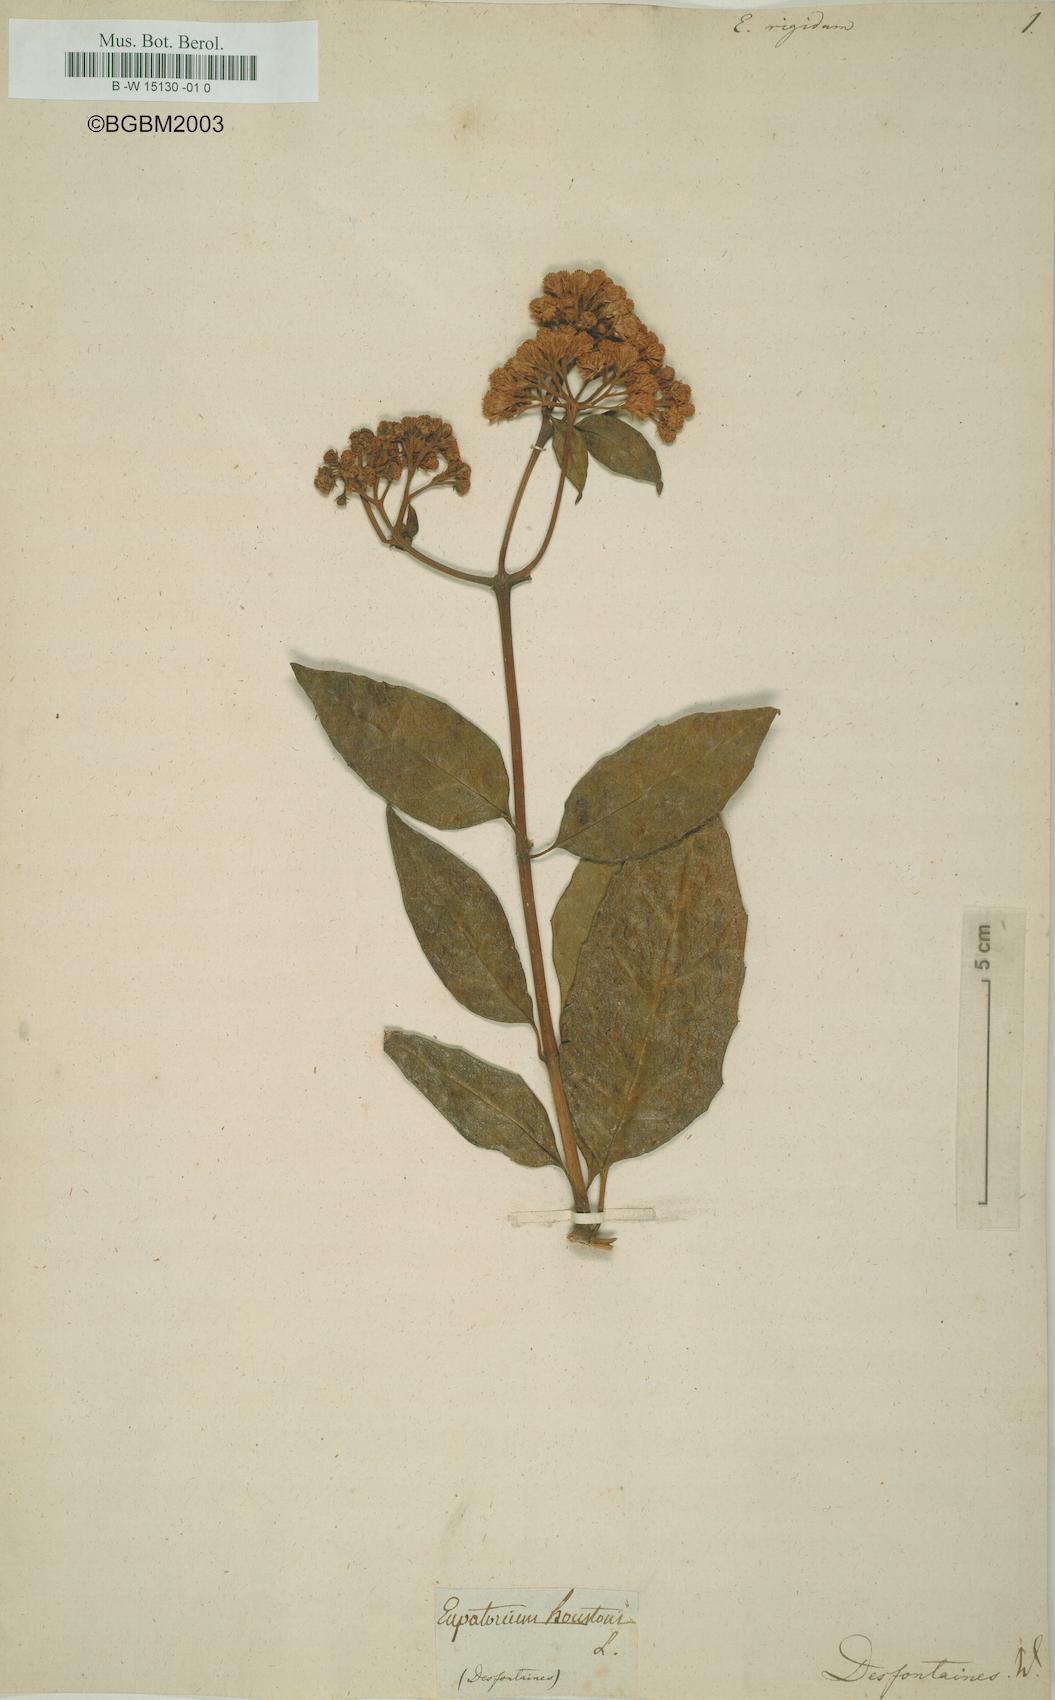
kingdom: Plantae
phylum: Tracheophyta
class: Magnoliopsida
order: Asterales
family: Asteraceae
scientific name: Asteraceae
